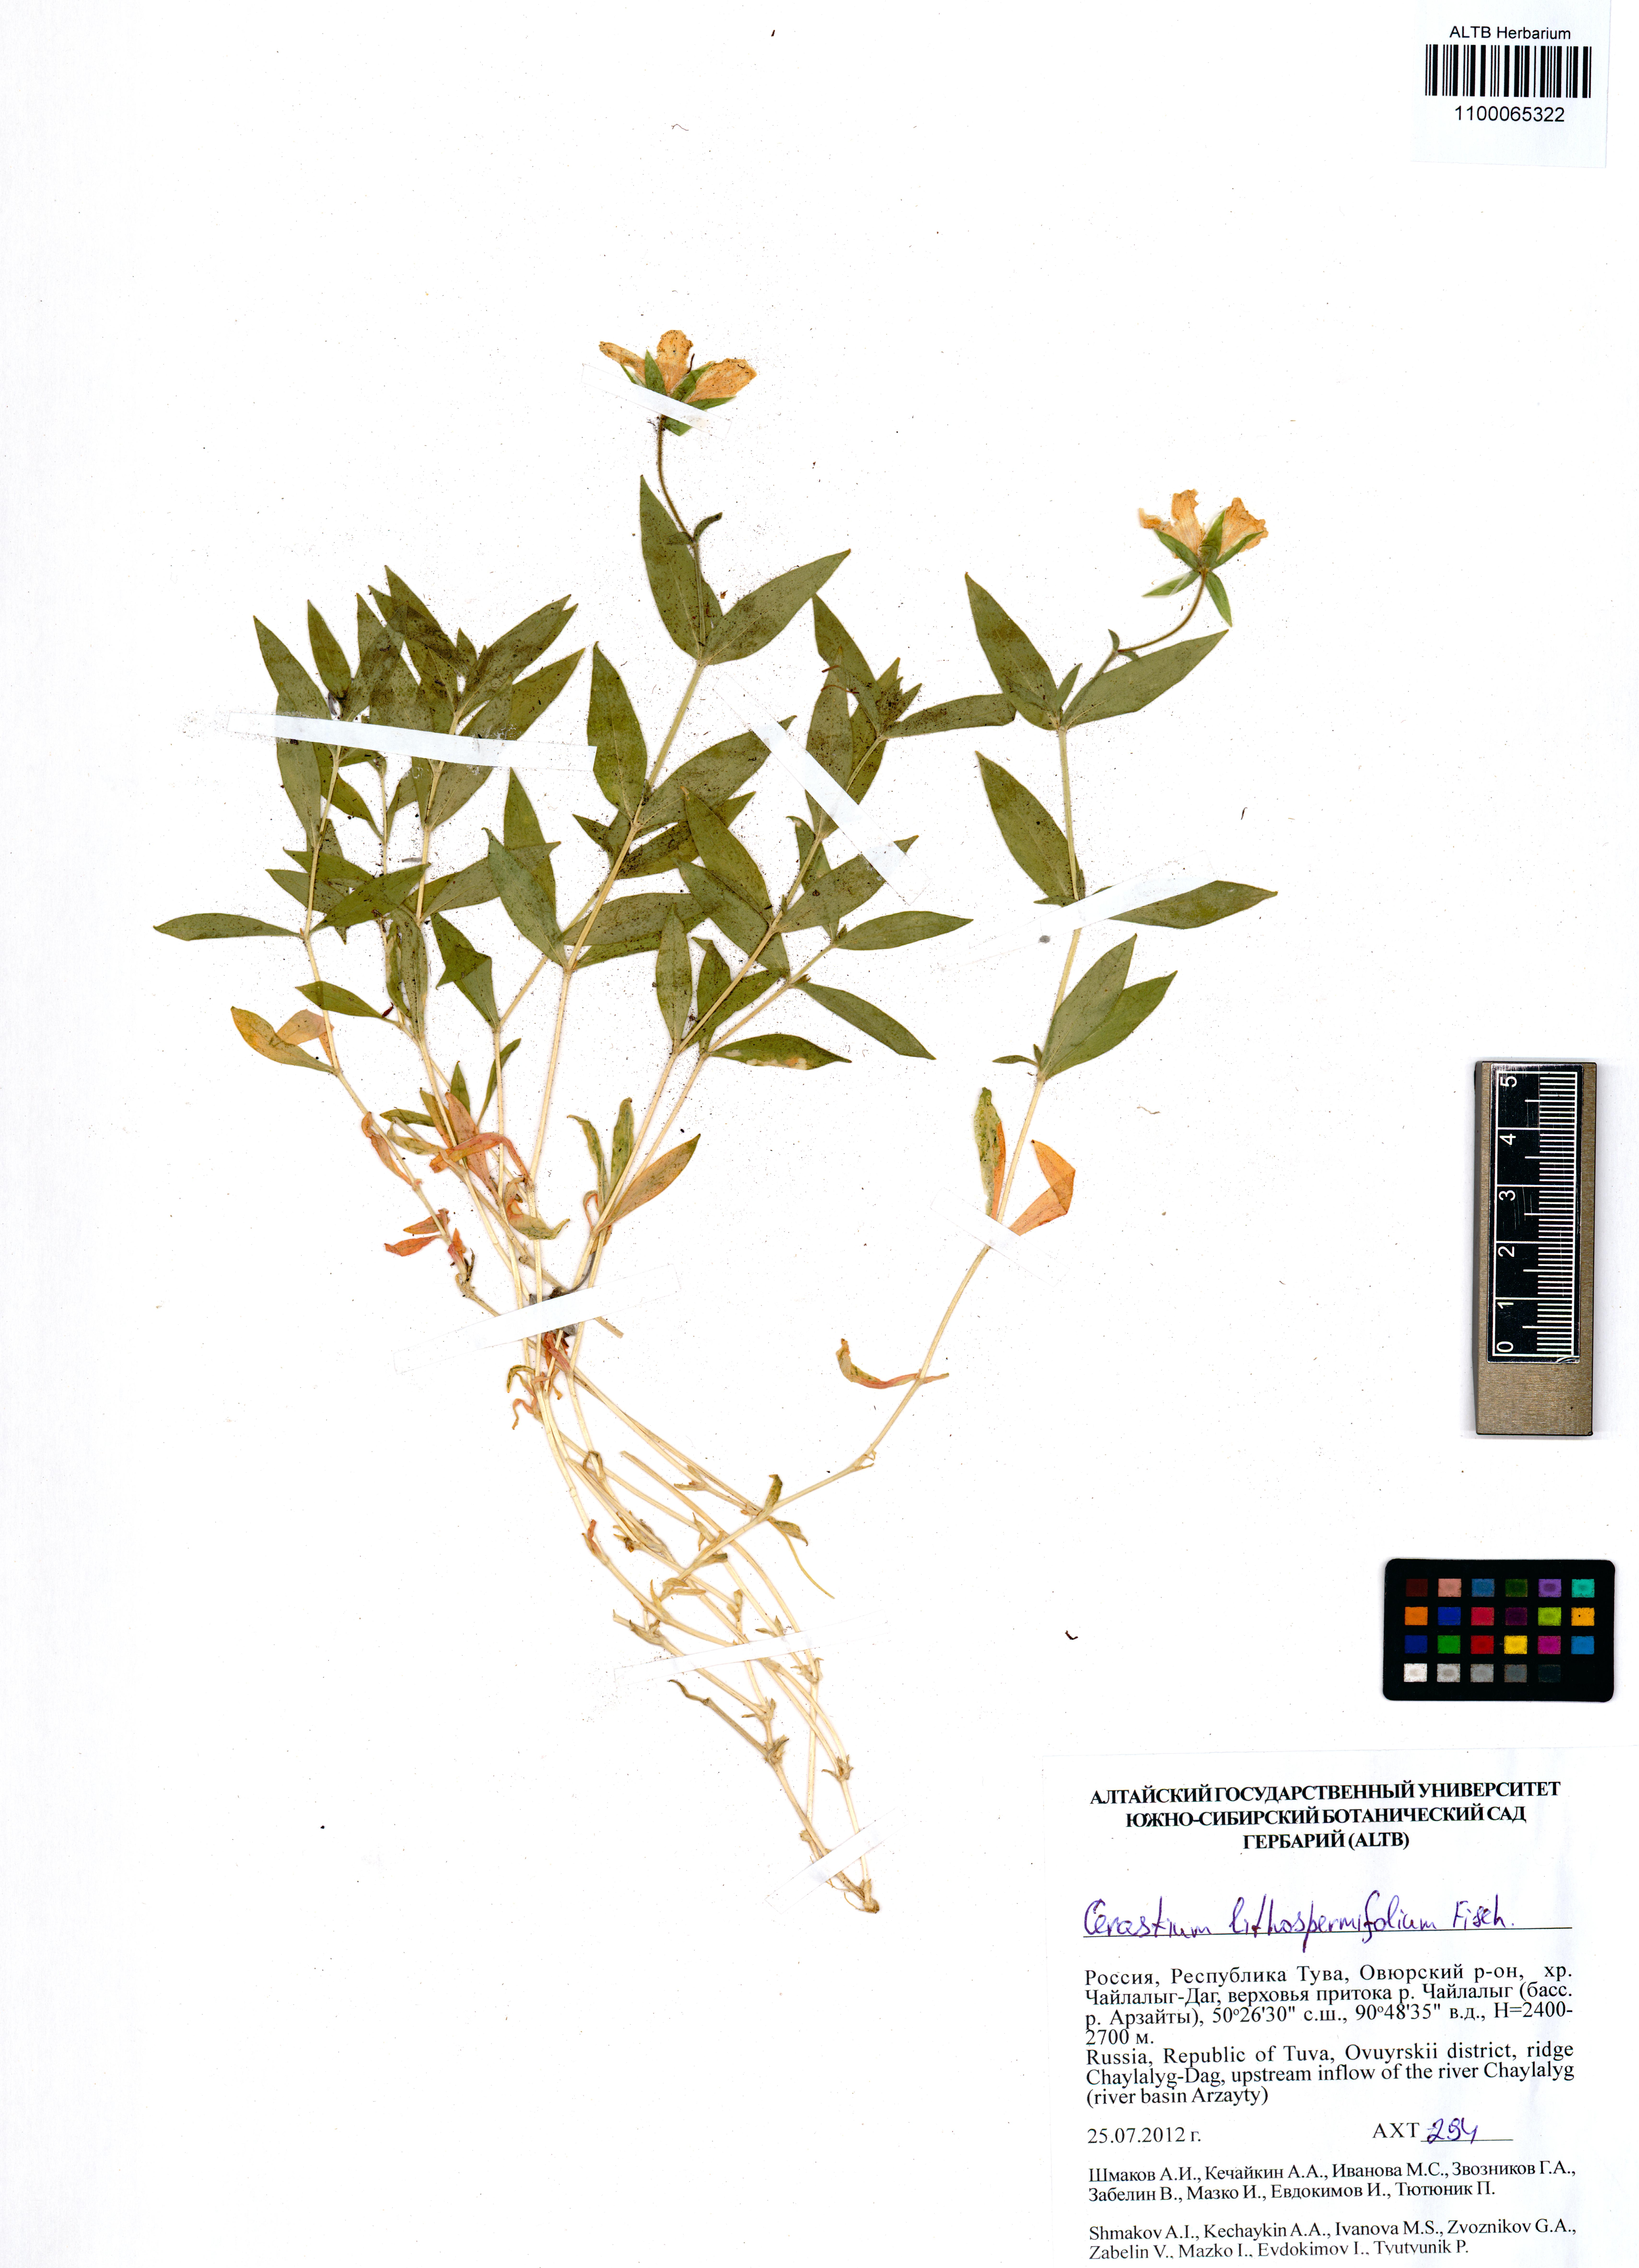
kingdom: Plantae
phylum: Tracheophyta
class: Magnoliopsida
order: Caryophyllales
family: Caryophyllaceae
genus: Cerastium
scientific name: Cerastium lithospermifolium
